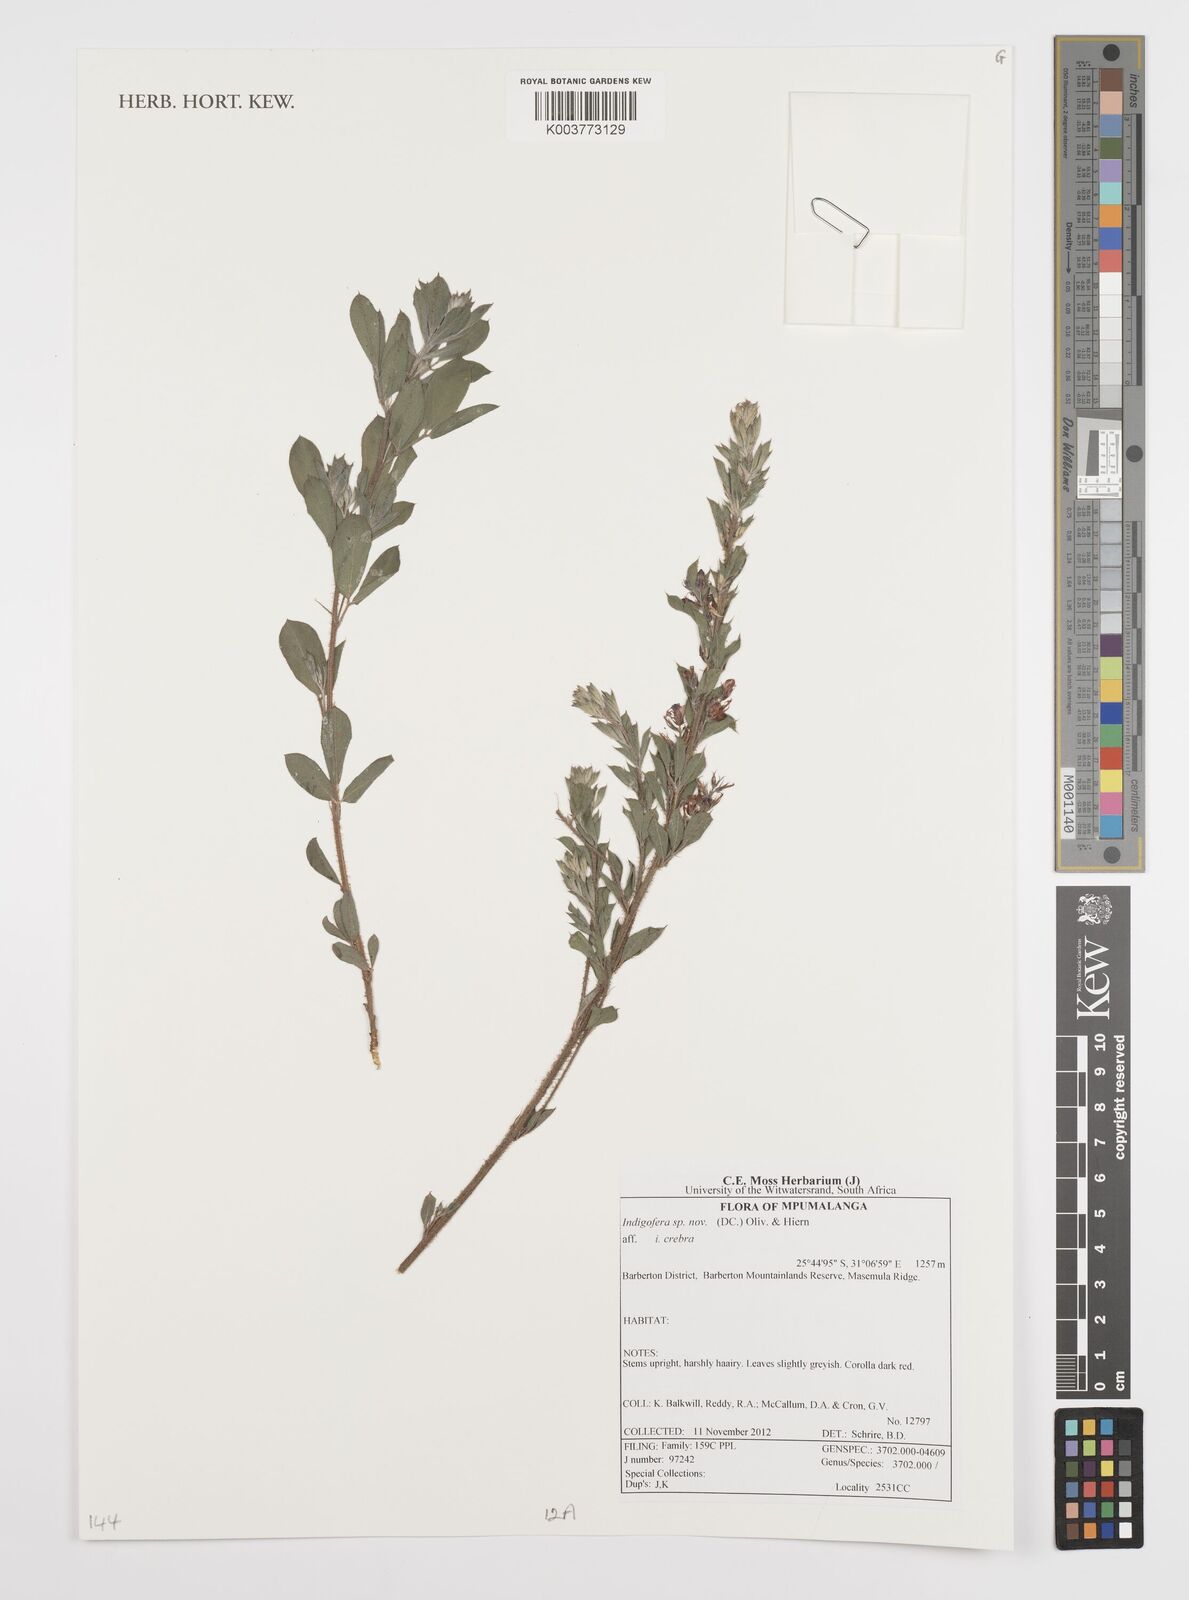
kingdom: Plantae
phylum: Tracheophyta
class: Magnoliopsida
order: Fabales
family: Fabaceae
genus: Indigofera
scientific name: Indigofera
